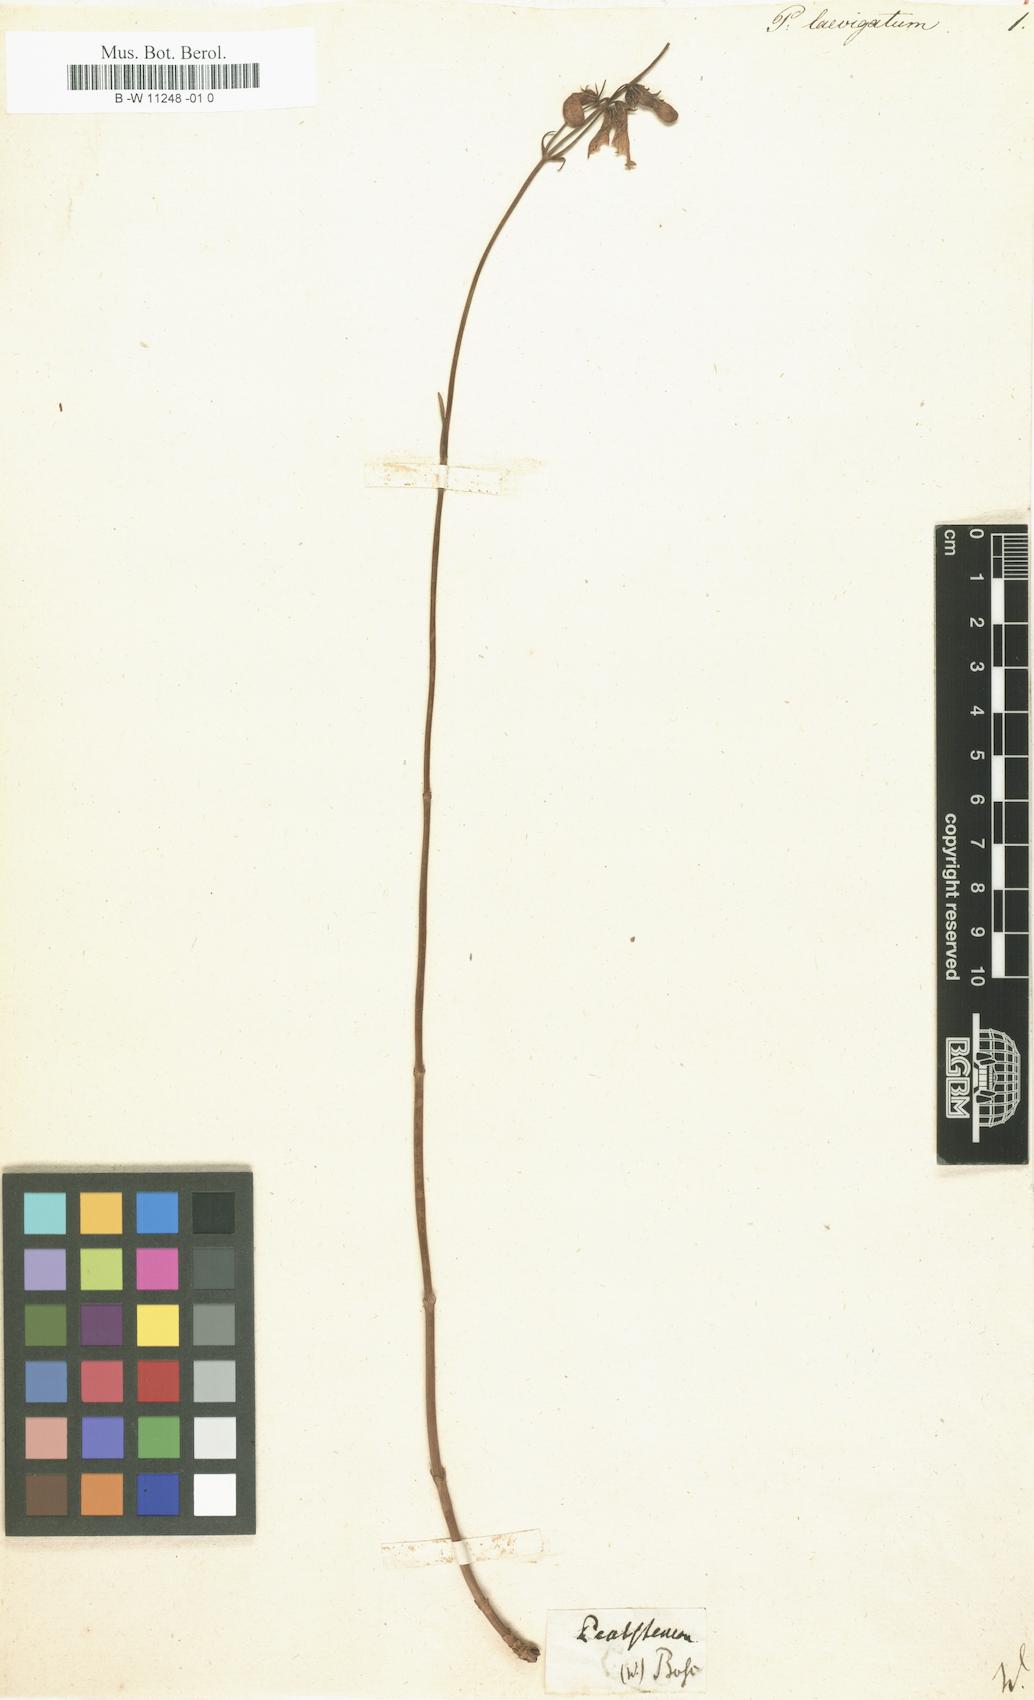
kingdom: Plantae
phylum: Tracheophyta
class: Magnoliopsida
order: Lamiales
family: Scrophulariaceae
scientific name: Scrophulariaceae
